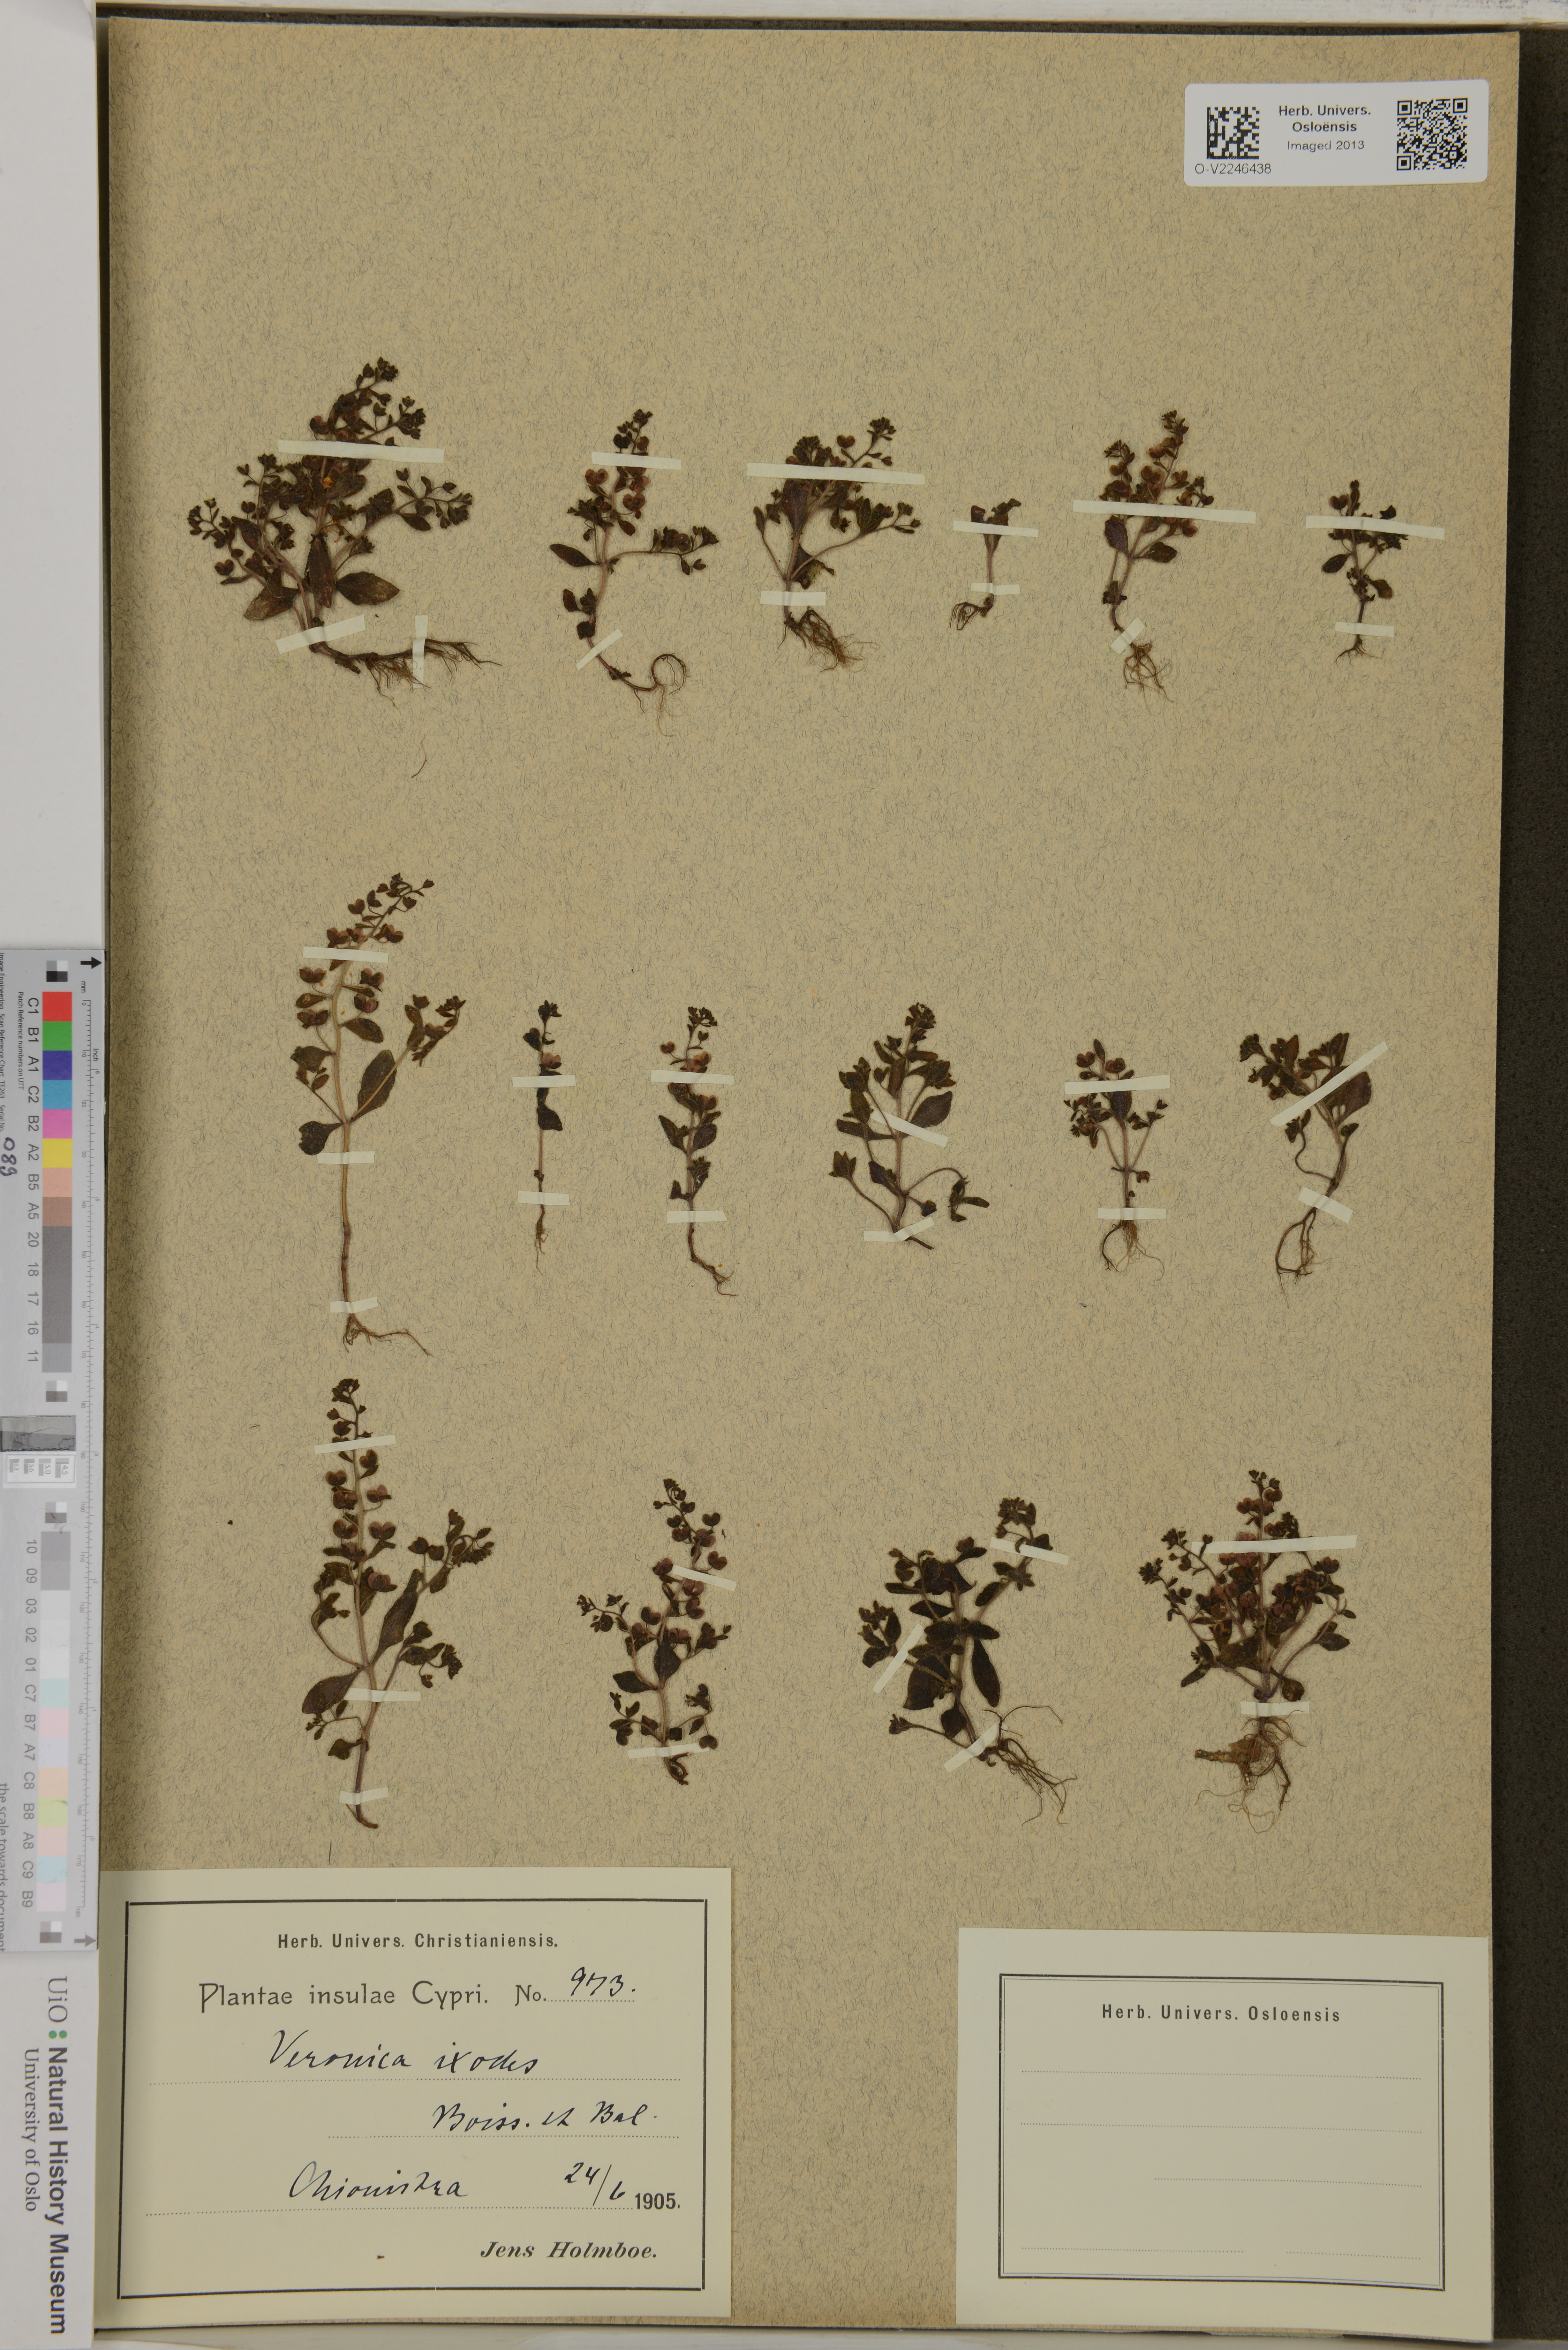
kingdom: Plantae
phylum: Tracheophyta
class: Magnoliopsida
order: Lamiales
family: Plantaginaceae
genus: Veronica
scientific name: Veronica hispidula
